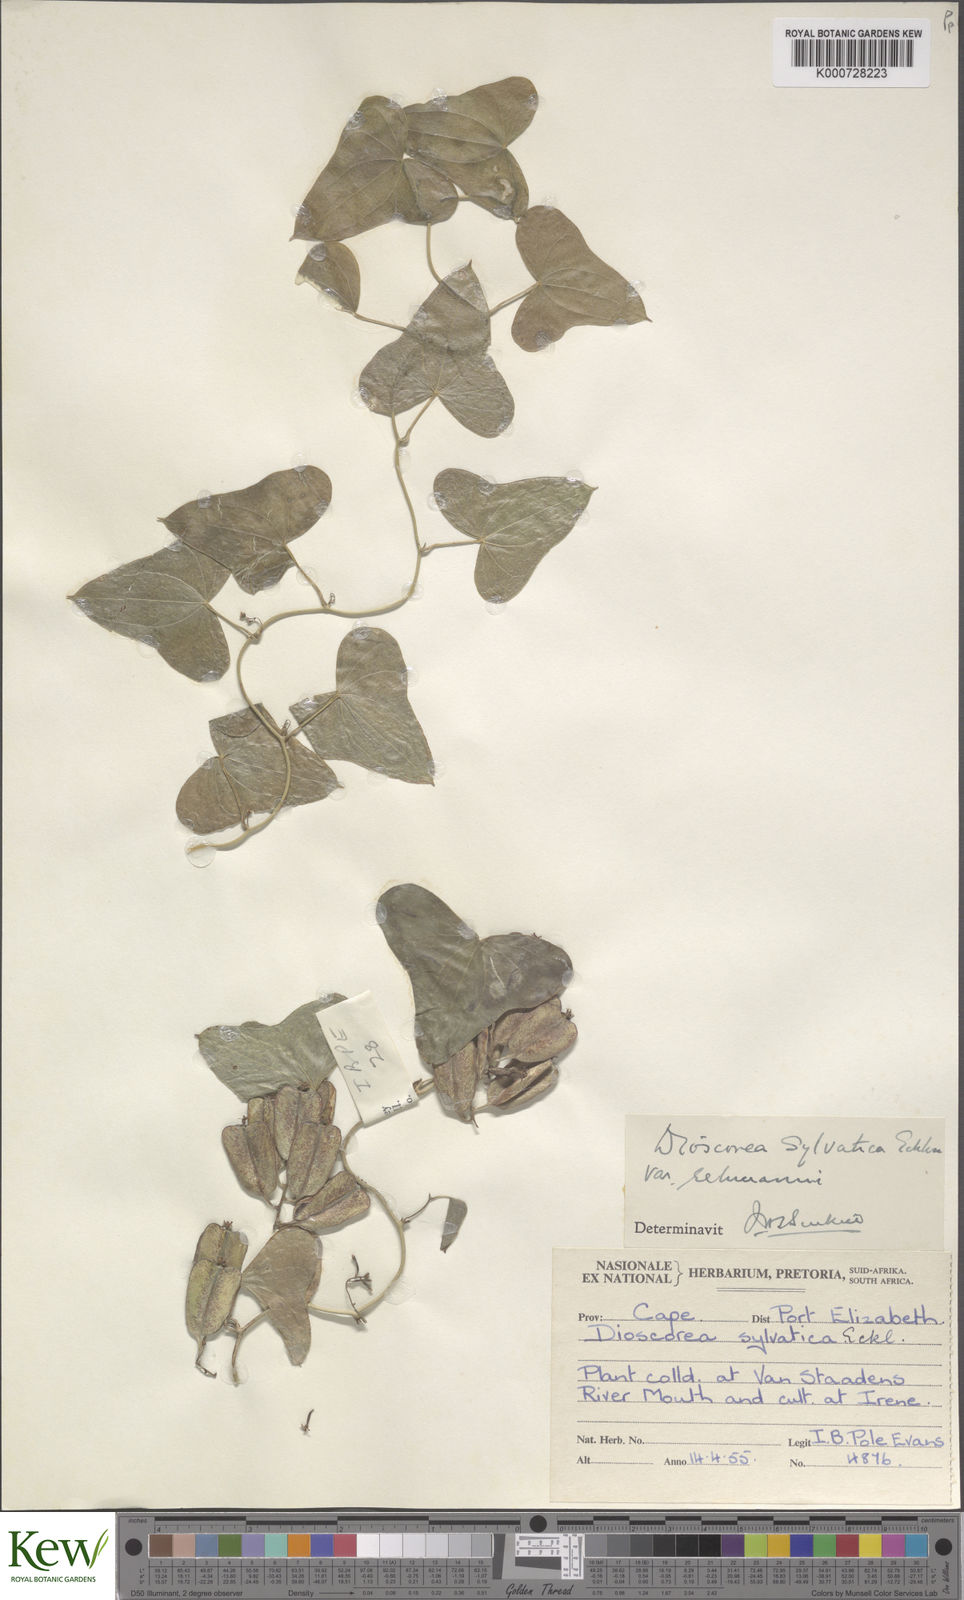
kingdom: Plantae
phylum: Tracheophyta
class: Liliopsida
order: Dioscoreales
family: Dioscoreaceae
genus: Dioscorea
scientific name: Dioscorea sylvatica
